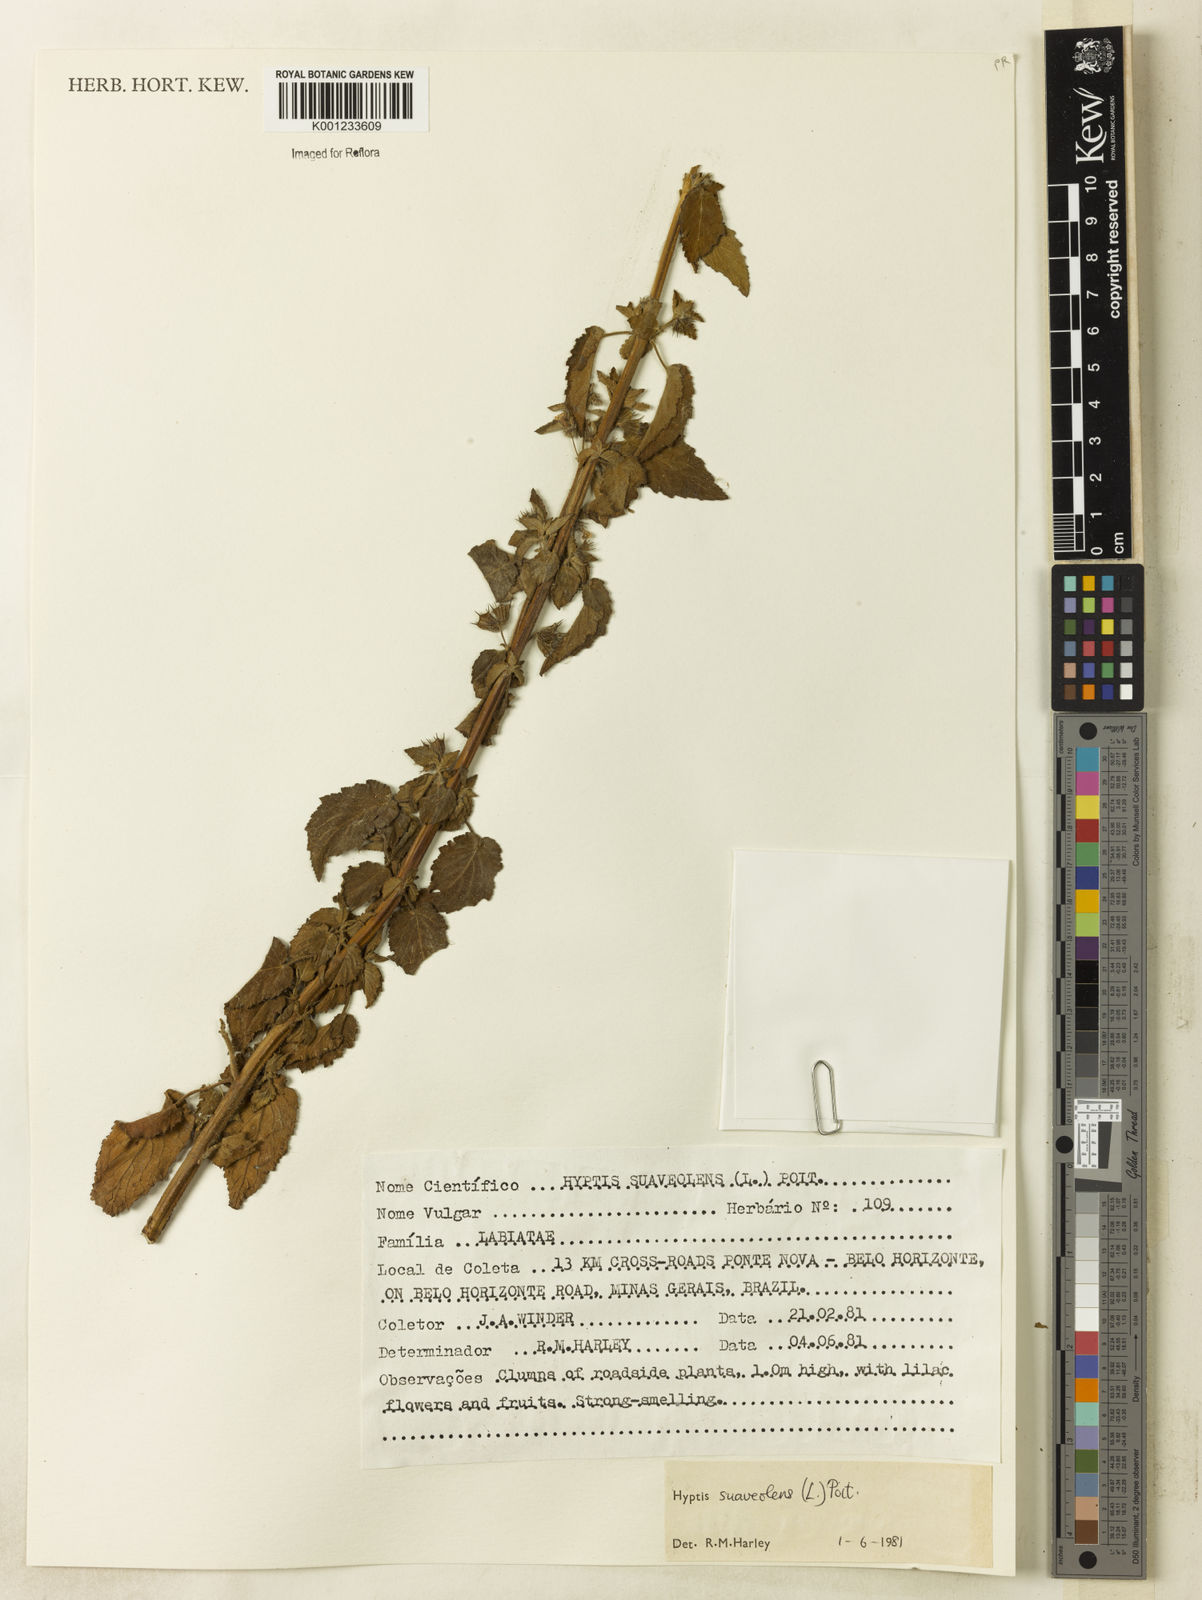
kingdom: Plantae
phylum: Tracheophyta
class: Magnoliopsida
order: Lamiales
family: Lamiaceae
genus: Mesosphaerum
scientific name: Mesosphaerum suaveolens
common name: Pignut
